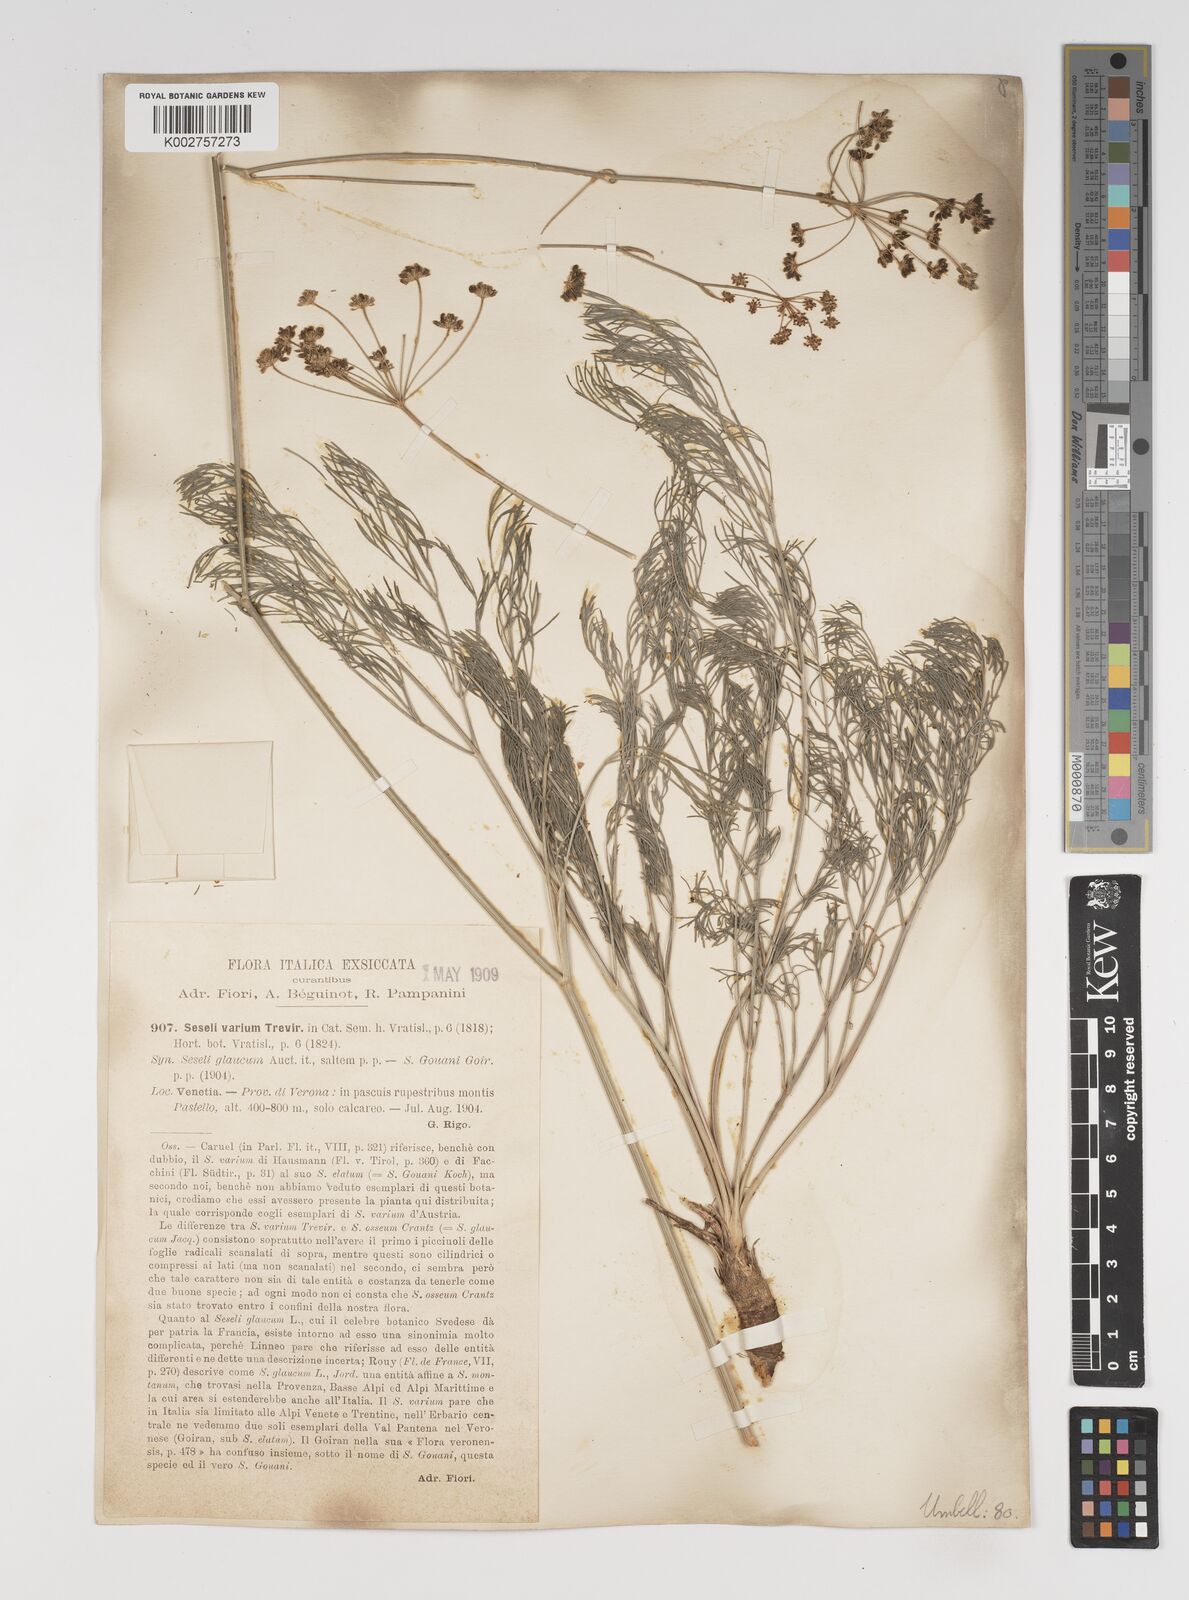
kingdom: Plantae
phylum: Tracheophyta
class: Magnoliopsida
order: Apiales
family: Apiaceae
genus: Seseli
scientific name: Seseli pallasii
